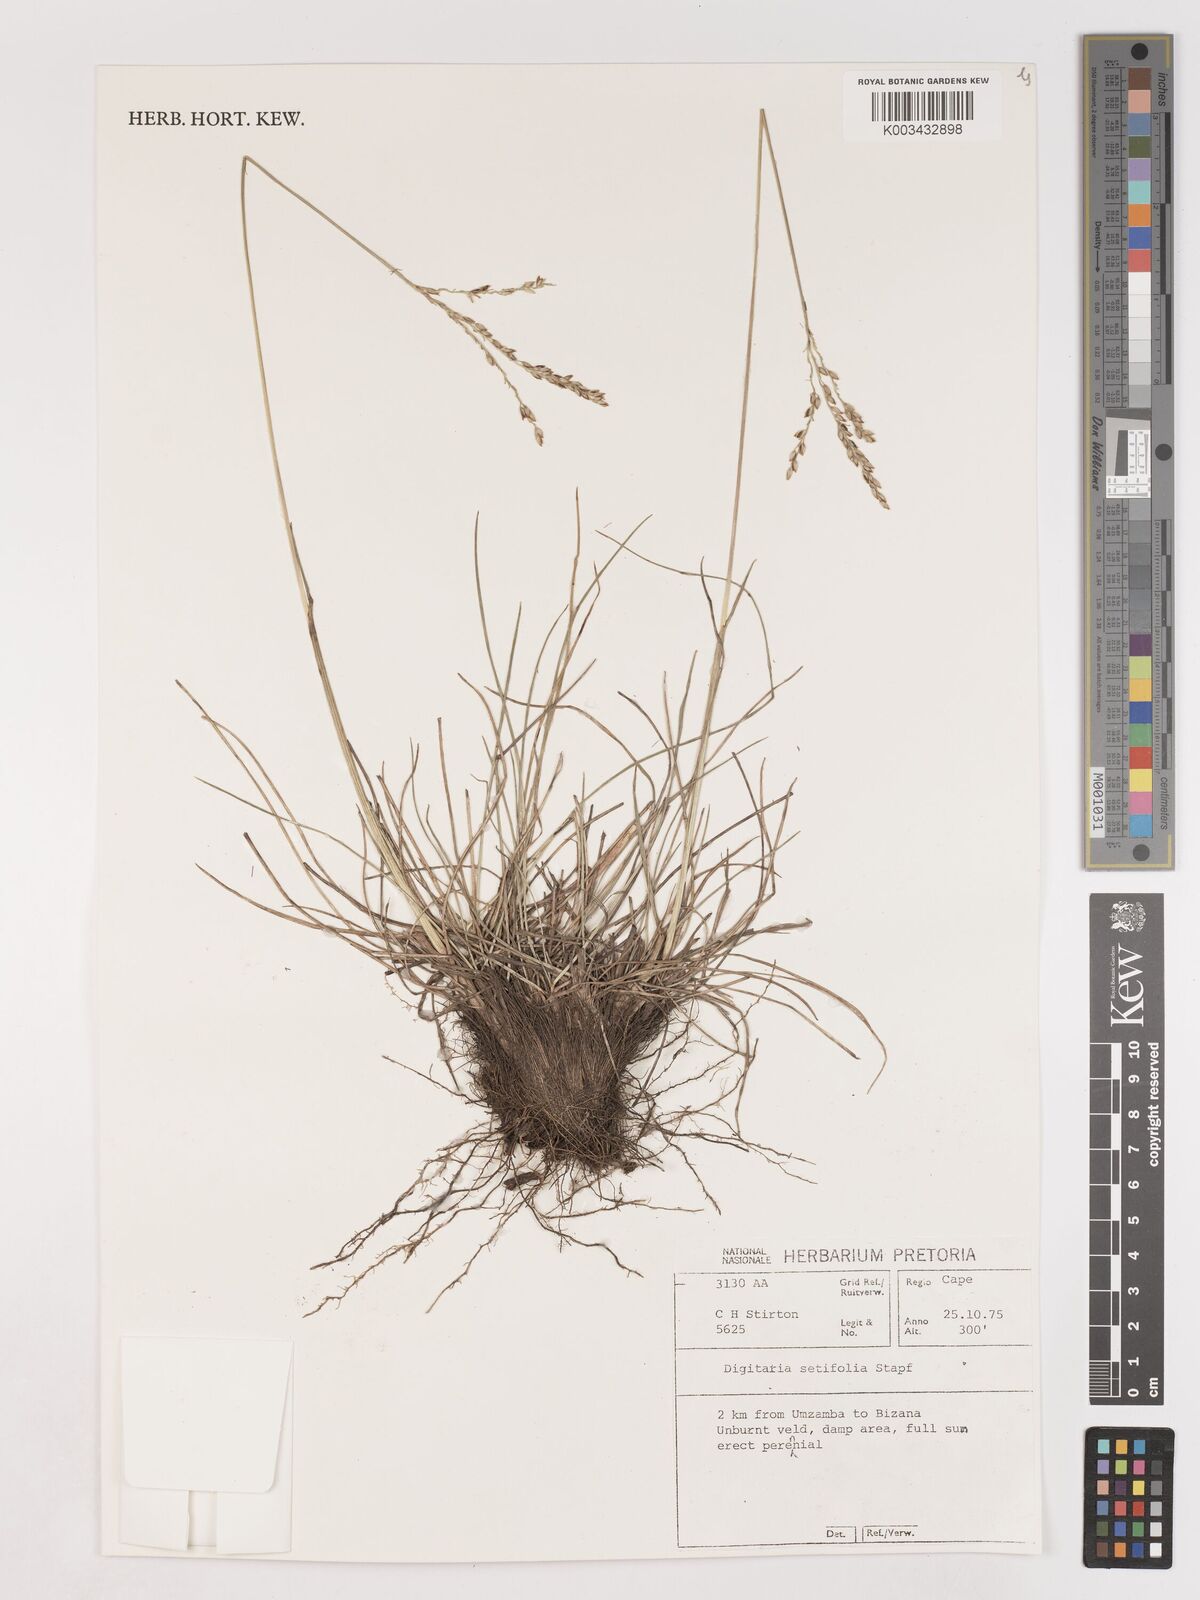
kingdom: Plantae
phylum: Tracheophyta
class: Liliopsida
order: Poales
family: Poaceae
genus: Digitaria
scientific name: Digitaria setifolia
